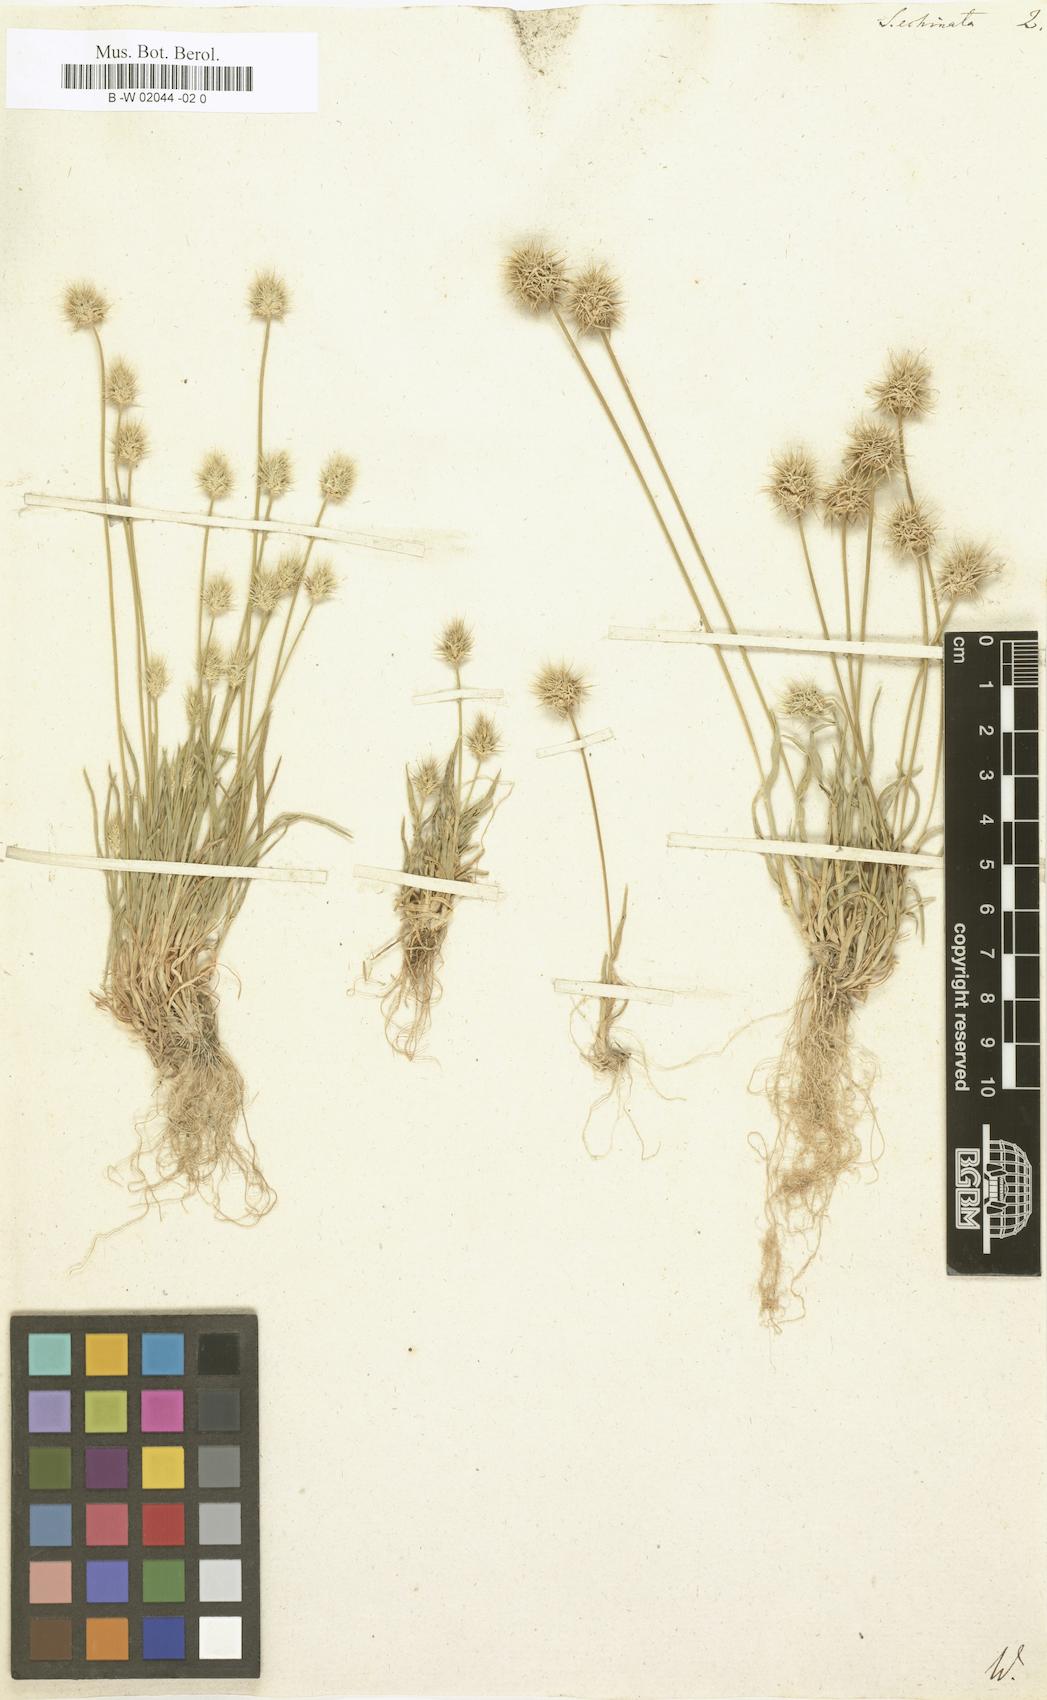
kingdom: Plantae
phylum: Tracheophyta
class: Liliopsida
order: Poales
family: Poaceae
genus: Ammochloa
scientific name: Ammochloa pungens
